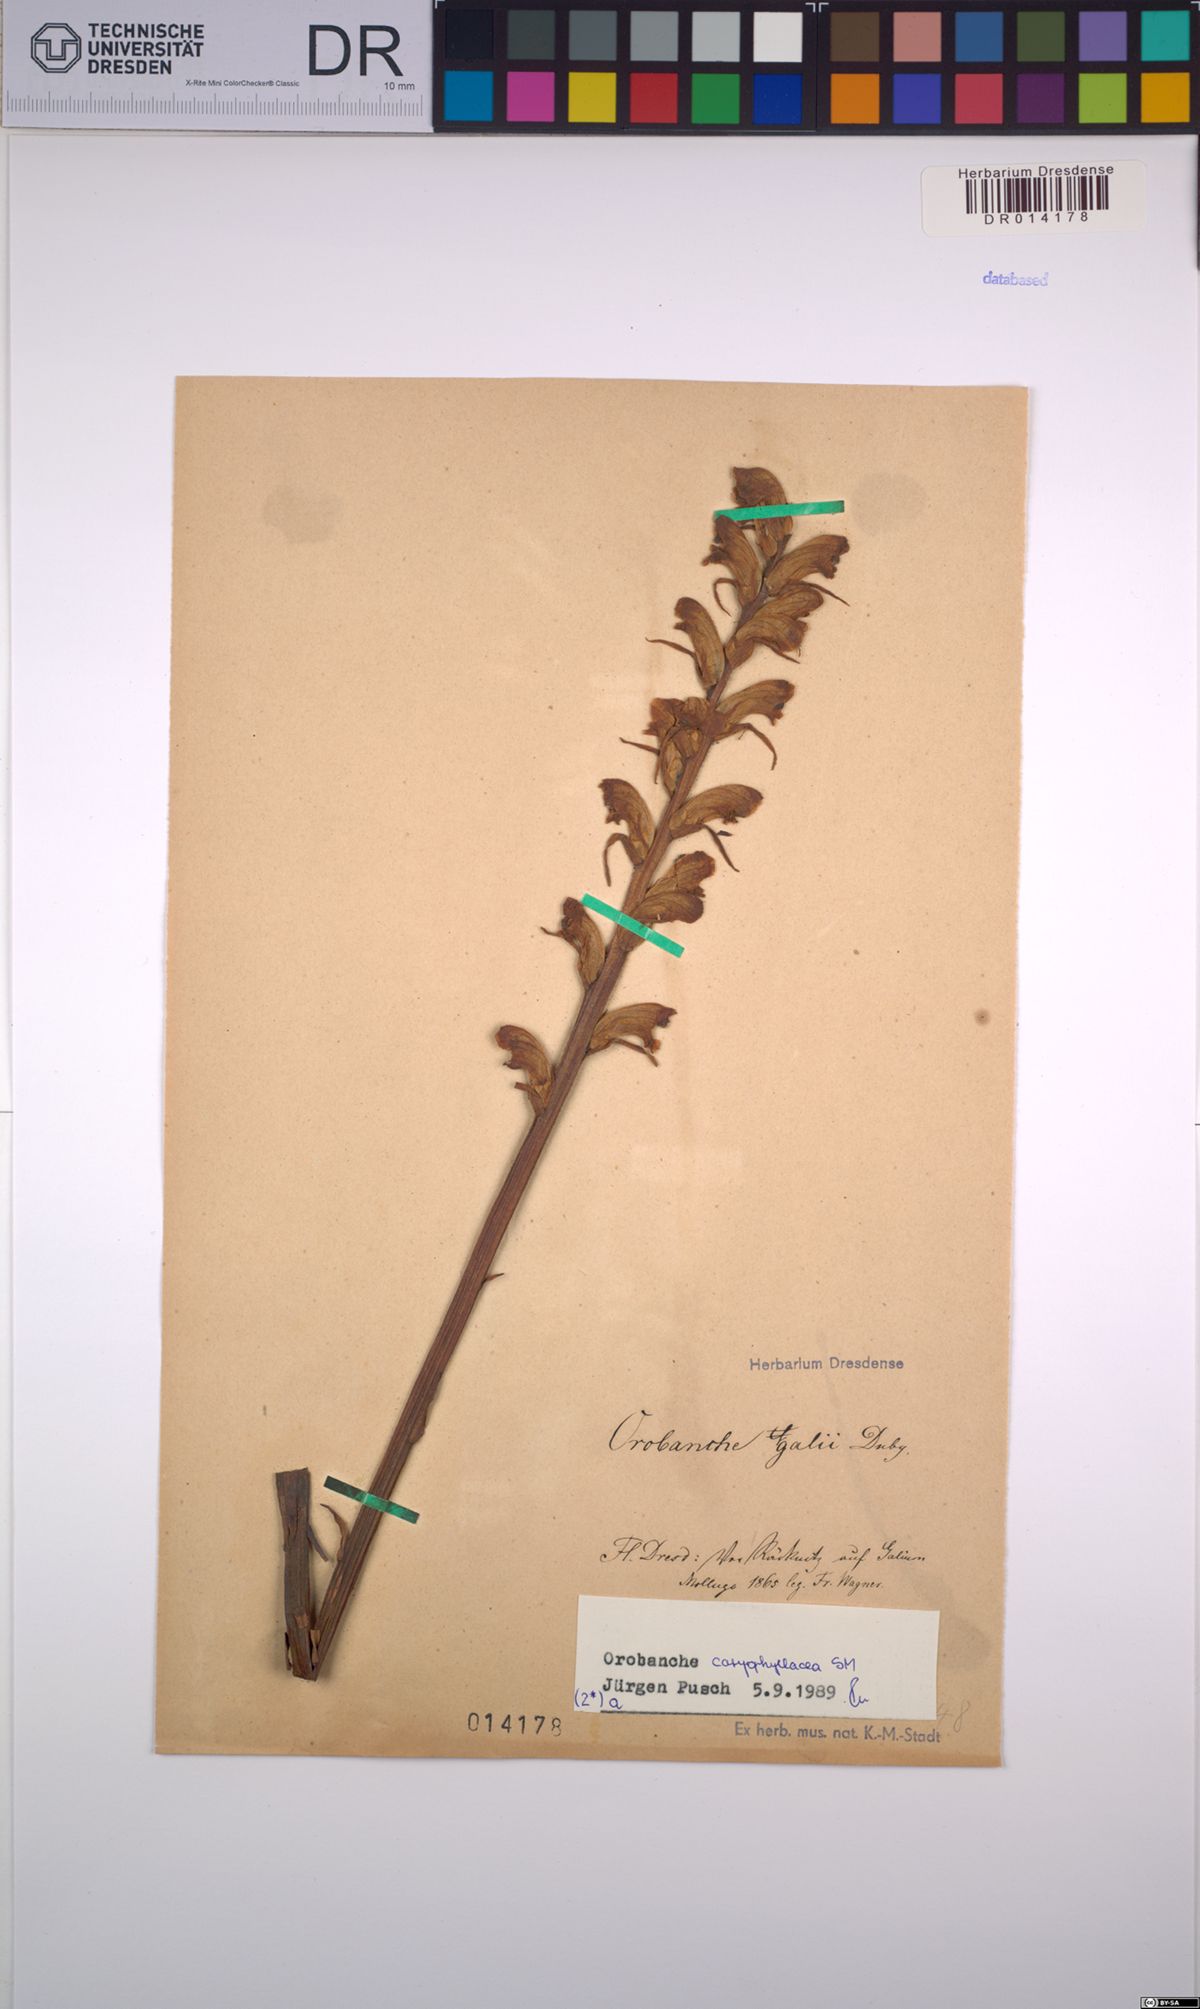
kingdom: Plantae
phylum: Tracheophyta
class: Magnoliopsida
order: Lamiales
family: Orobanchaceae
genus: Orobanche
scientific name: Orobanche caryophyllacea
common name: Bedstraw broomrape
